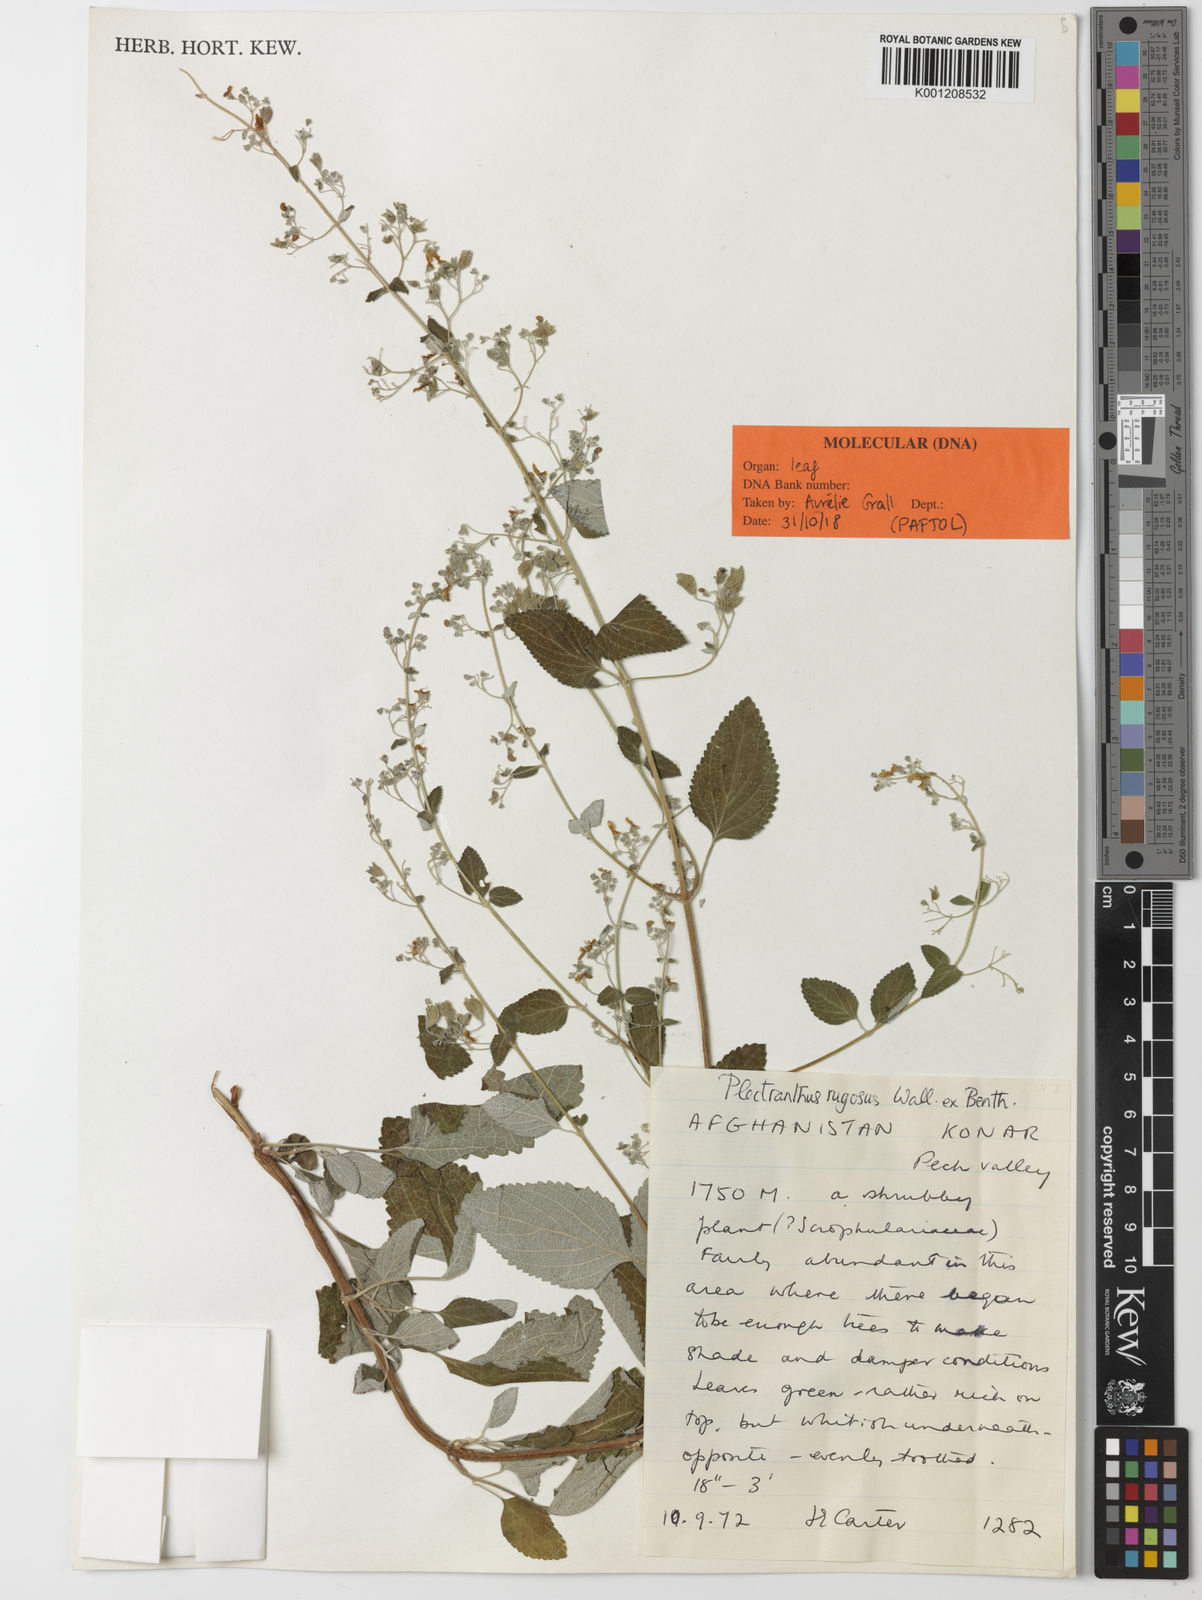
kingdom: Plantae
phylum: Tracheophyta
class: Magnoliopsida
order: Lamiales
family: Lamiaceae
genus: Isodon
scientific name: Isodon rugosus
